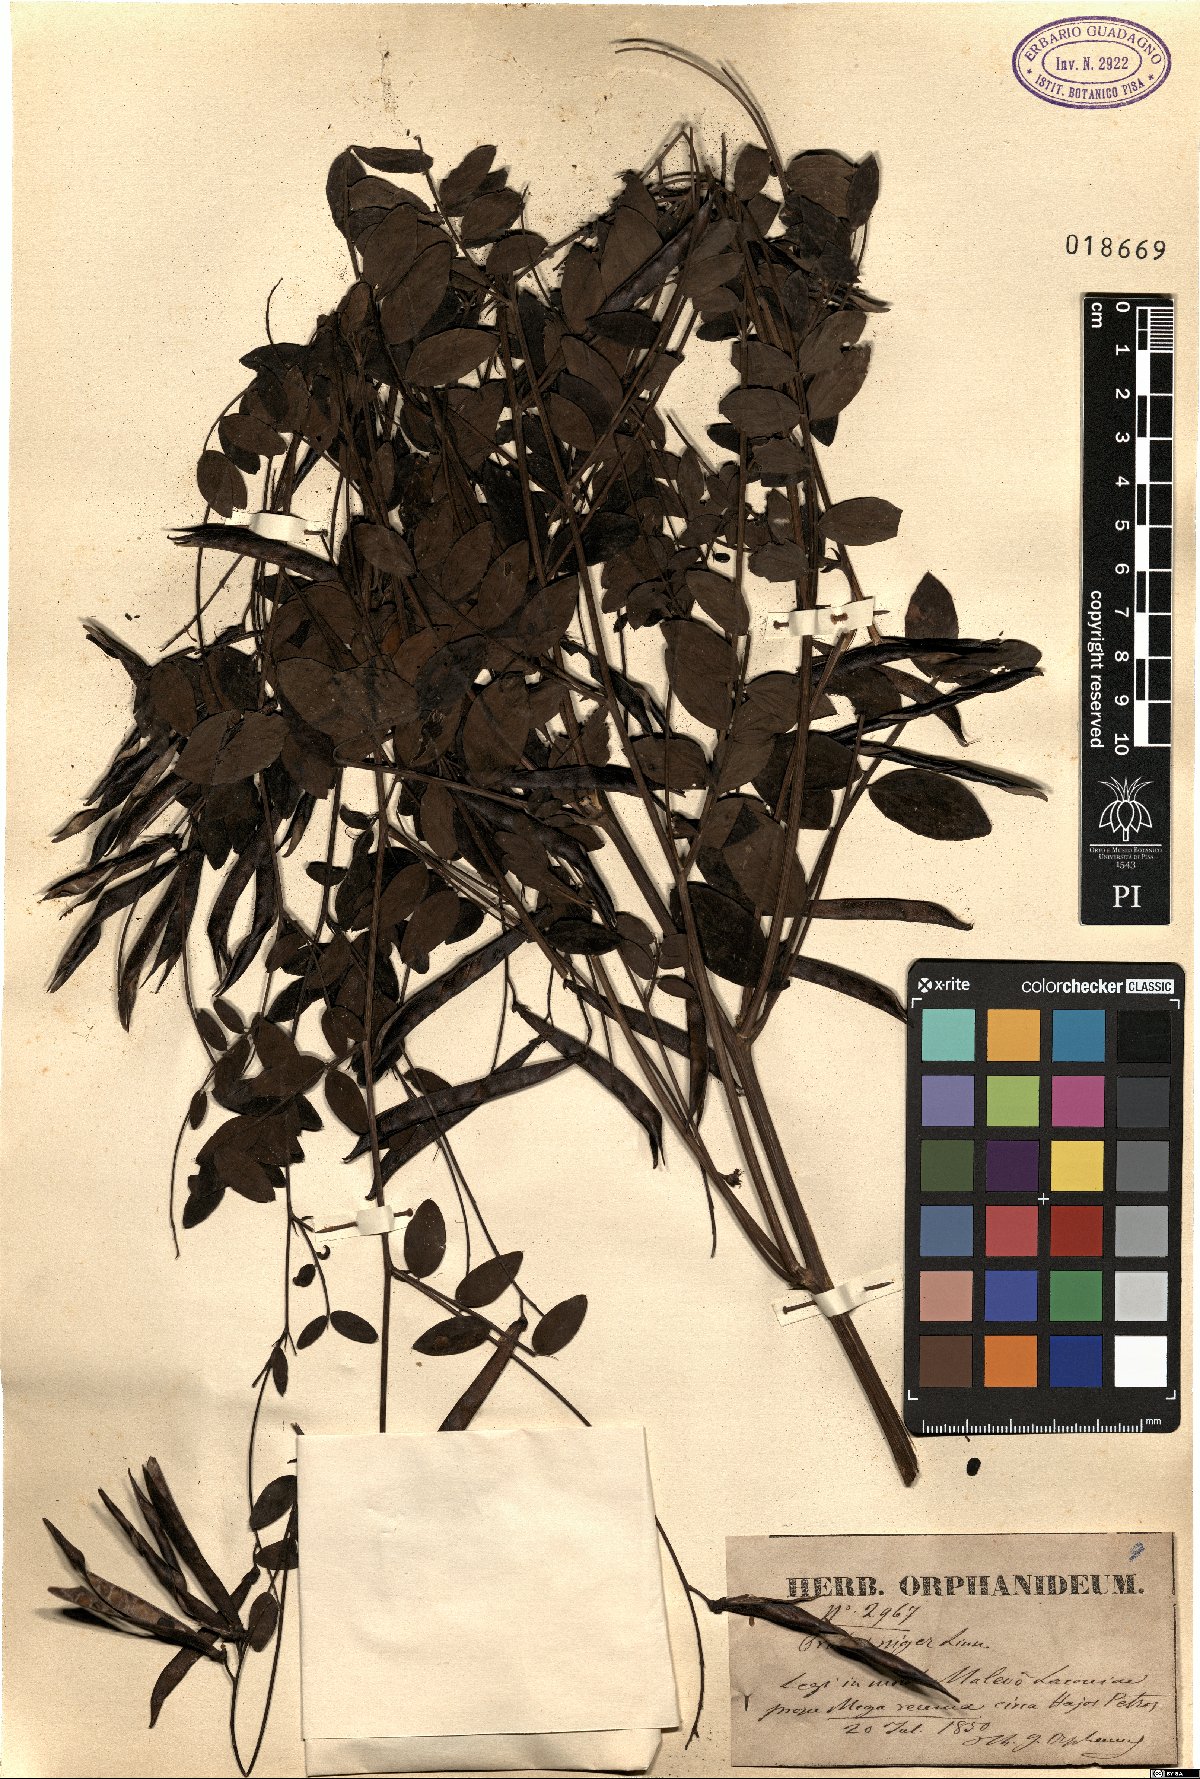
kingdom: Plantae
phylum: Tracheophyta
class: Magnoliopsida
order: Fabales
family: Fabaceae
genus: Lathyrus
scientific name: Lathyrus niger
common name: Black pea
